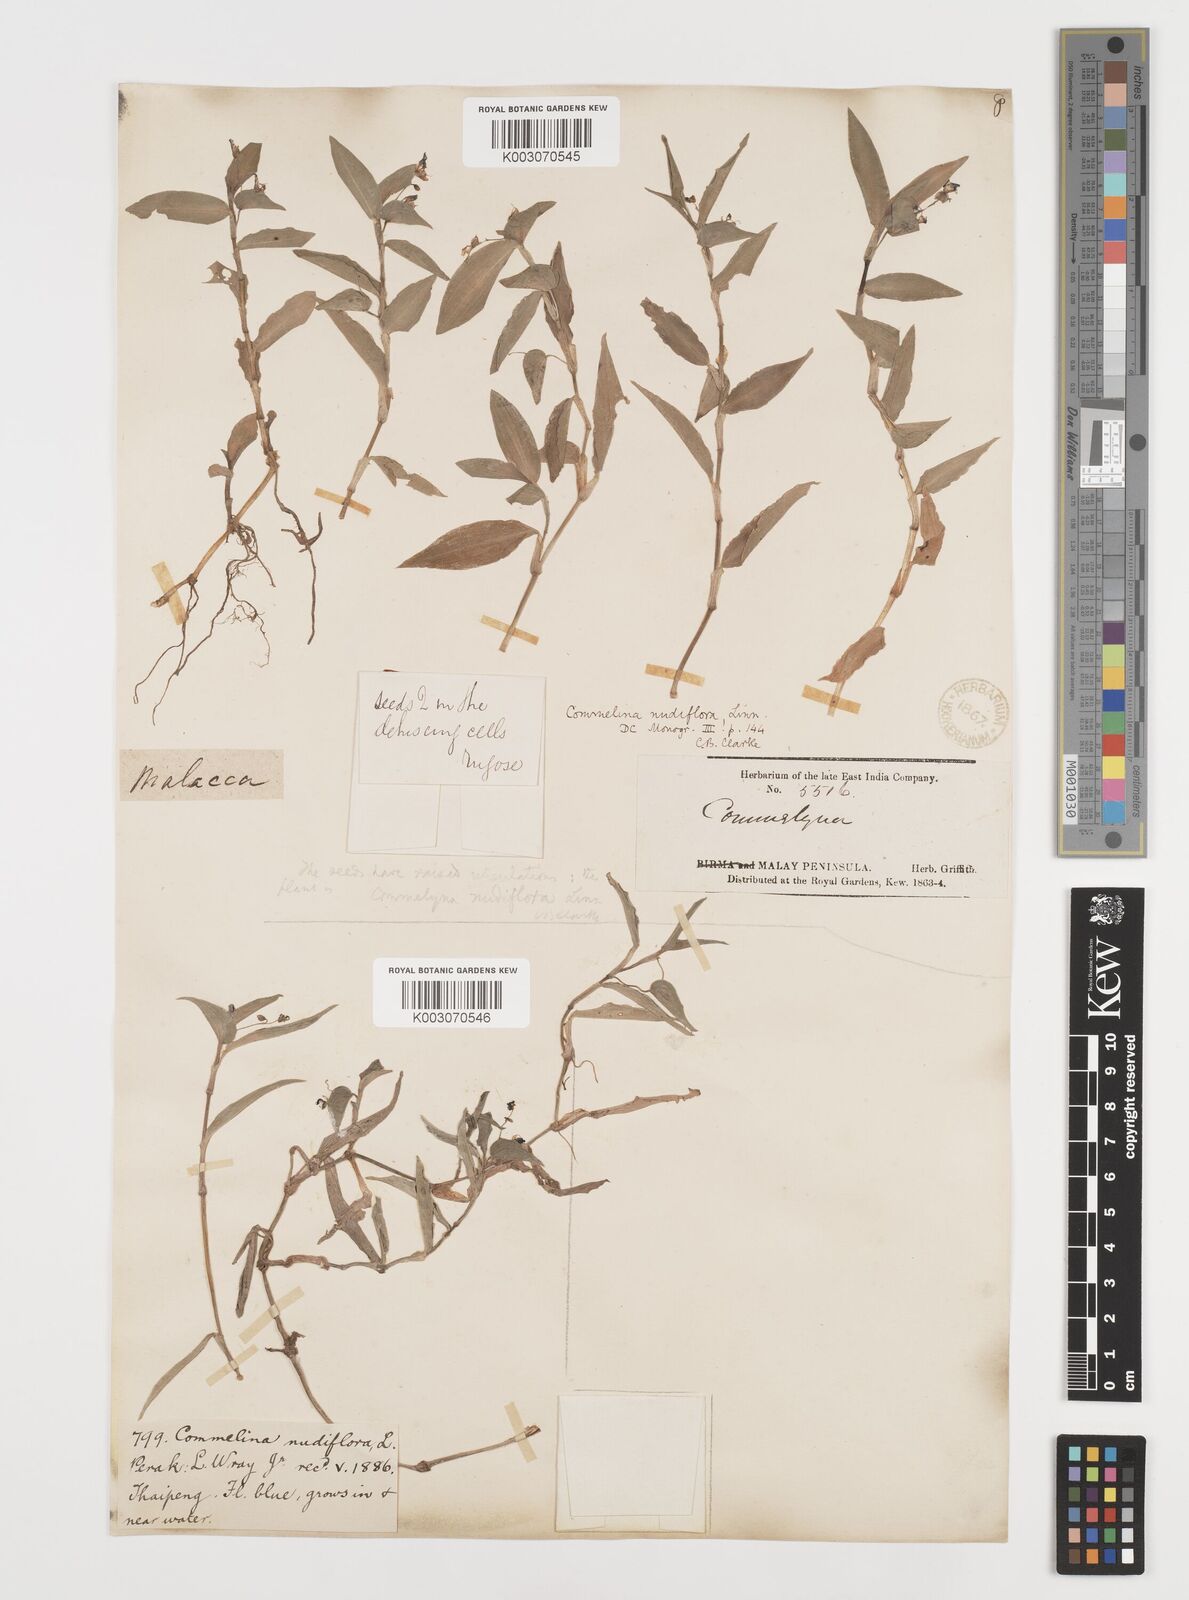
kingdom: Plantae
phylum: Tracheophyta
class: Liliopsida
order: Commelinales
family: Commelinaceae
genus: Commelina
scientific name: Commelina clavata
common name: Willow leaved dayflower
